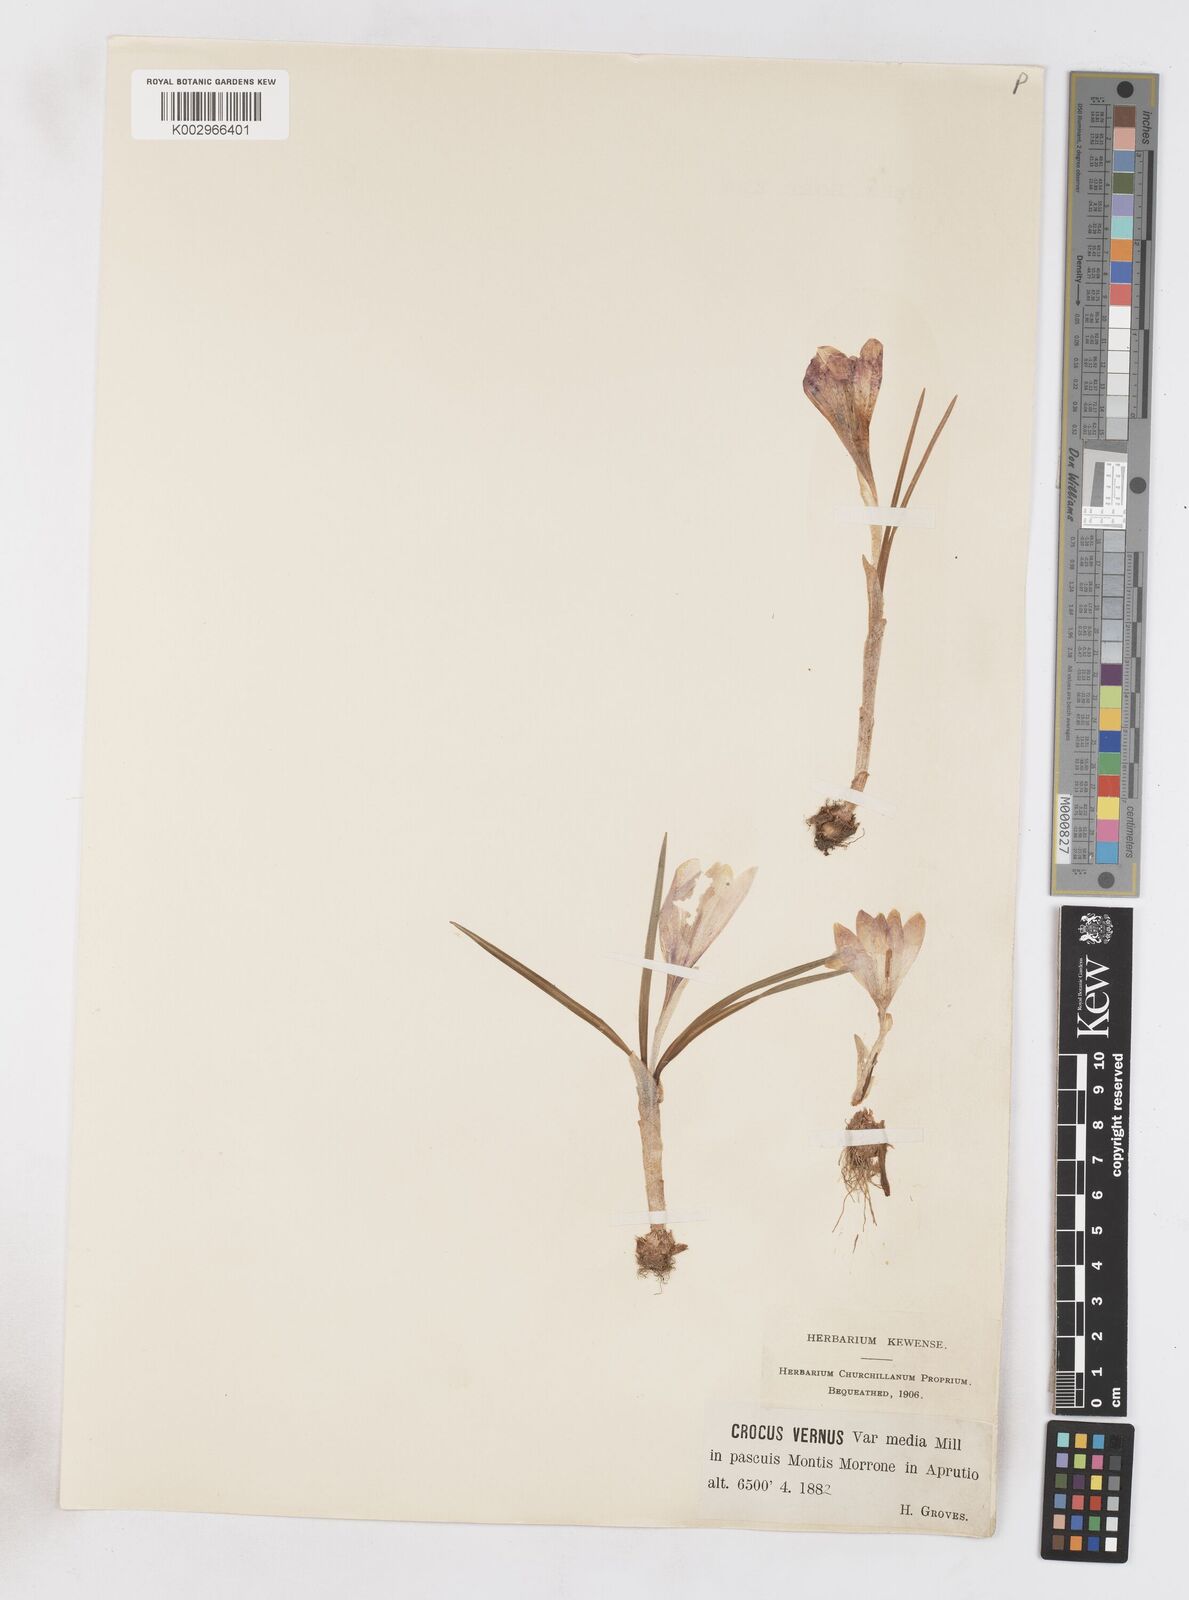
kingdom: Plantae
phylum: Tracheophyta
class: Liliopsida
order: Asparagales
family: Iridaceae
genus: Crocus
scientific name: Crocus vernus
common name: Spring crocus
